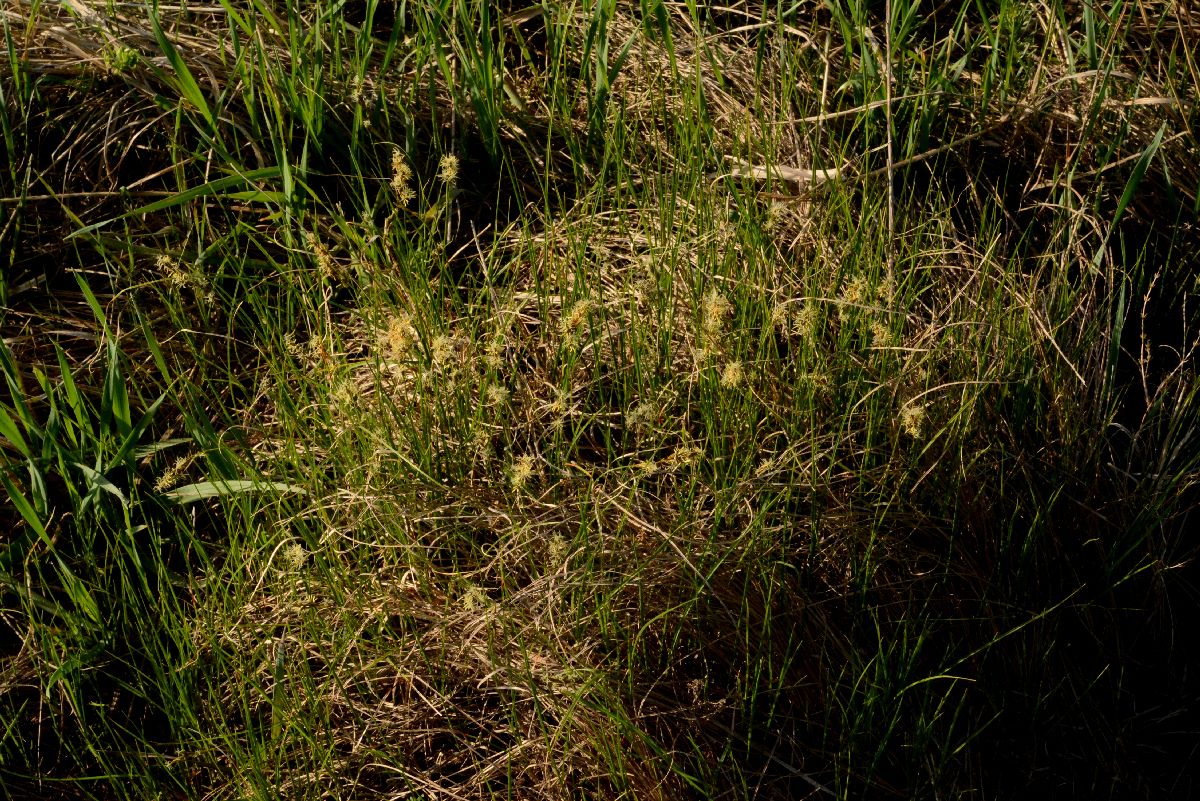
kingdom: Plantae
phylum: Tracheophyta
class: Liliopsida
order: Poales
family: Cyperaceae
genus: Carex
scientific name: Carex praecox
